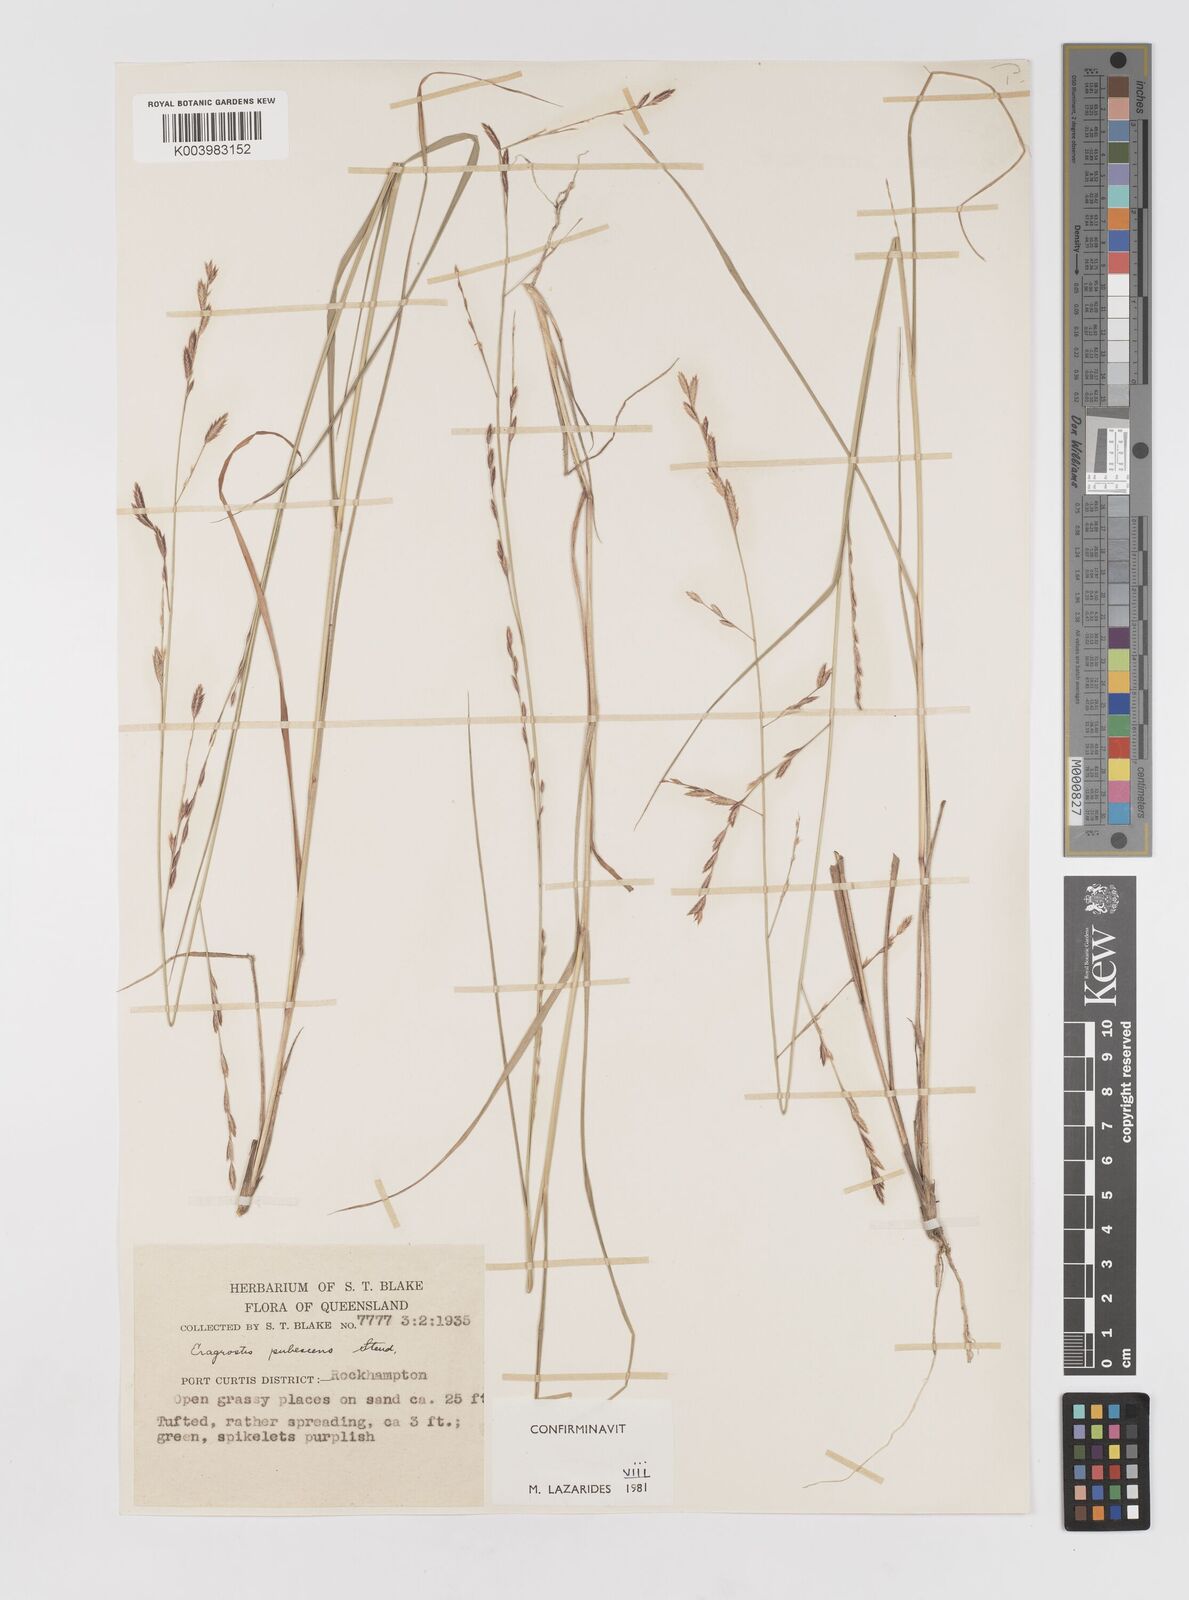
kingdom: Plantae
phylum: Tracheophyta
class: Liliopsida
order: Poales
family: Poaceae
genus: Eragrostis
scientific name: Eragrostis pubescens
